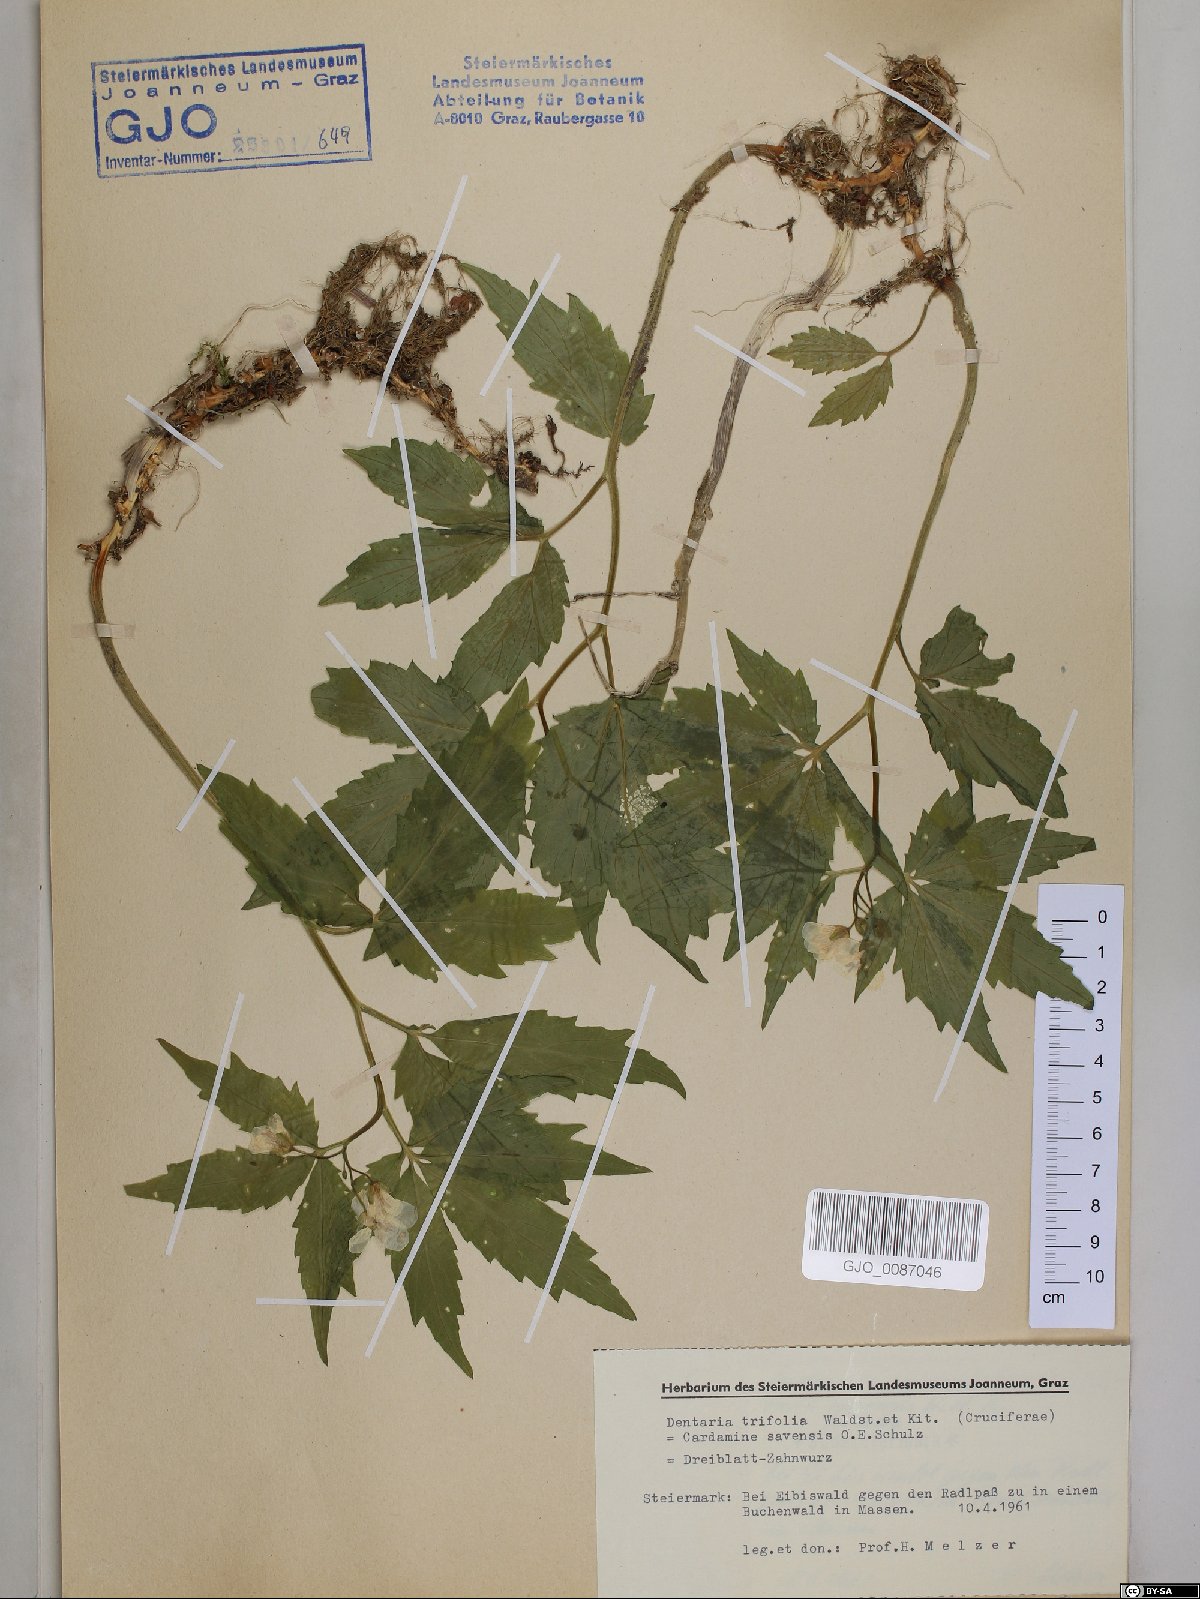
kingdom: Plantae
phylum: Tracheophyta
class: Magnoliopsida
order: Brassicales
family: Brassicaceae
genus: Cardamine
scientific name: Cardamine waldsteinii
